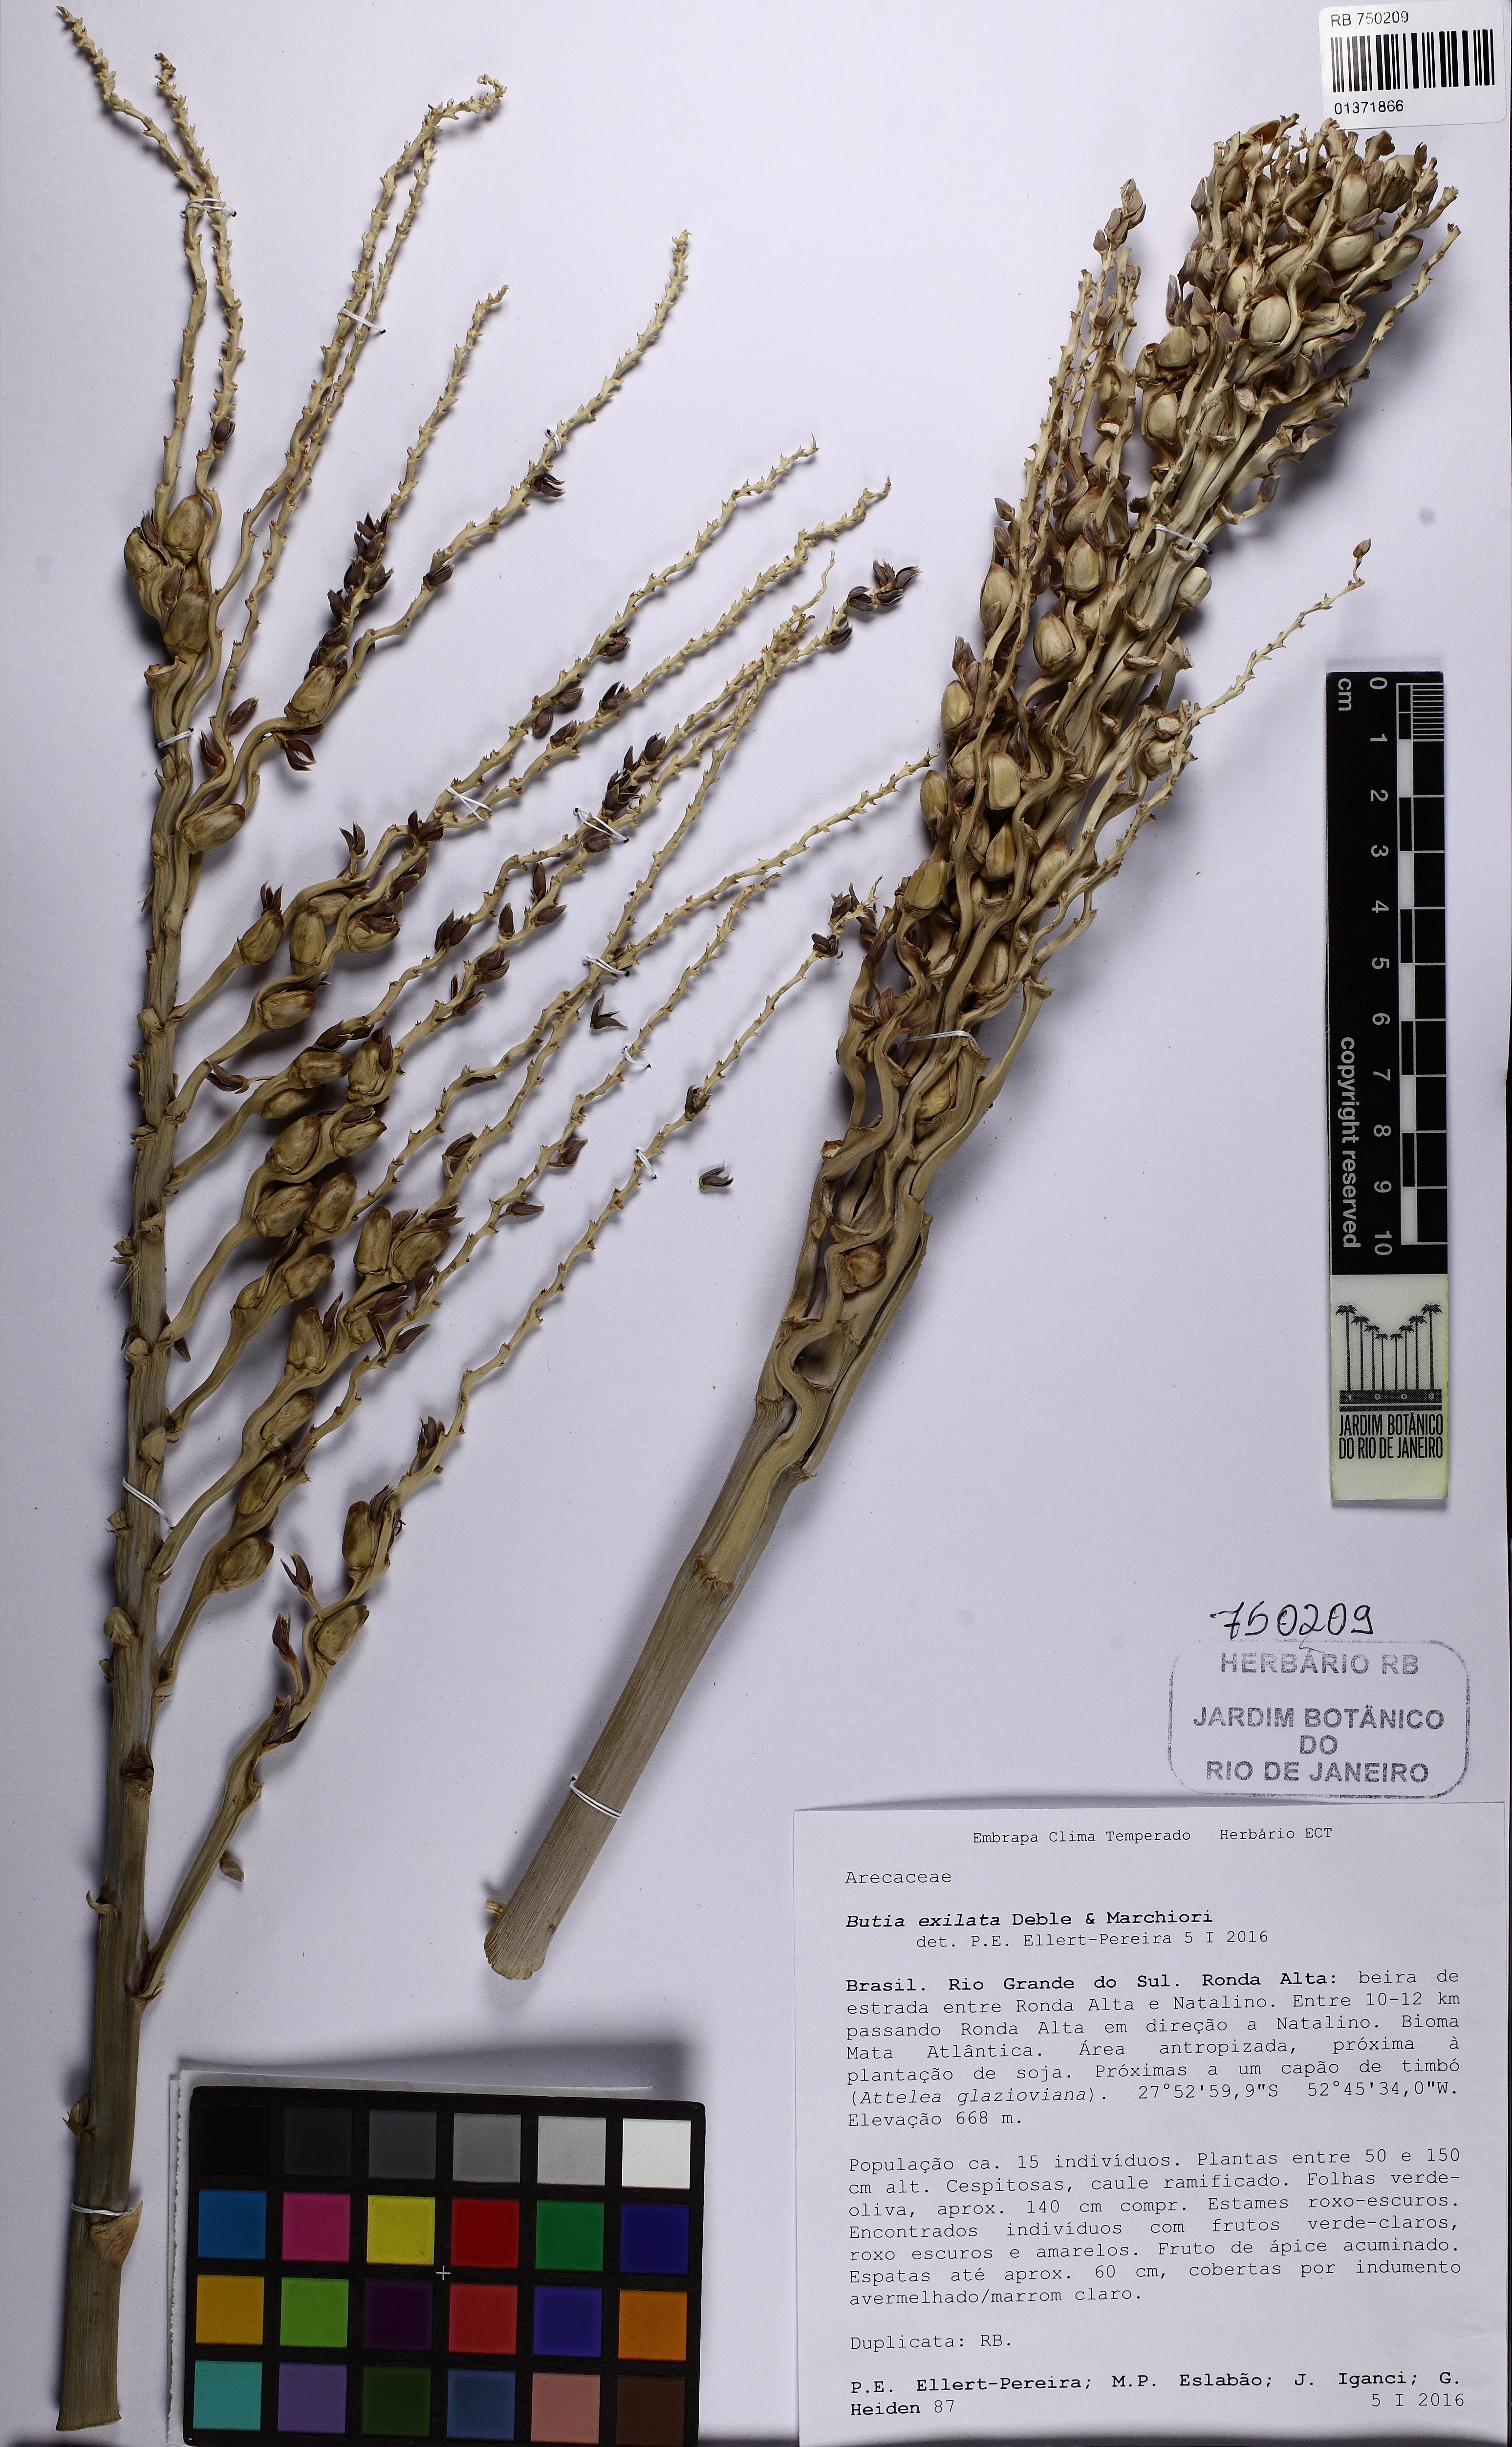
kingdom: Plantae
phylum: Tracheophyta
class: Liliopsida
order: Arecales
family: Arecaceae
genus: Butia
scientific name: Butia exilata
